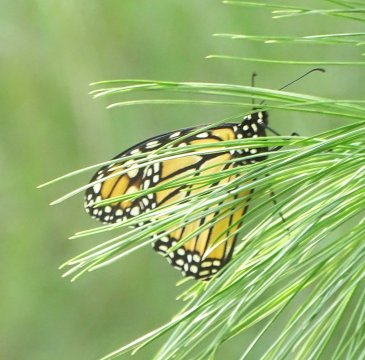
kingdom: Animalia
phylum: Arthropoda
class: Insecta
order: Lepidoptera
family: Nymphalidae
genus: Danaus
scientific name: Danaus plexippus
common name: Monarch
